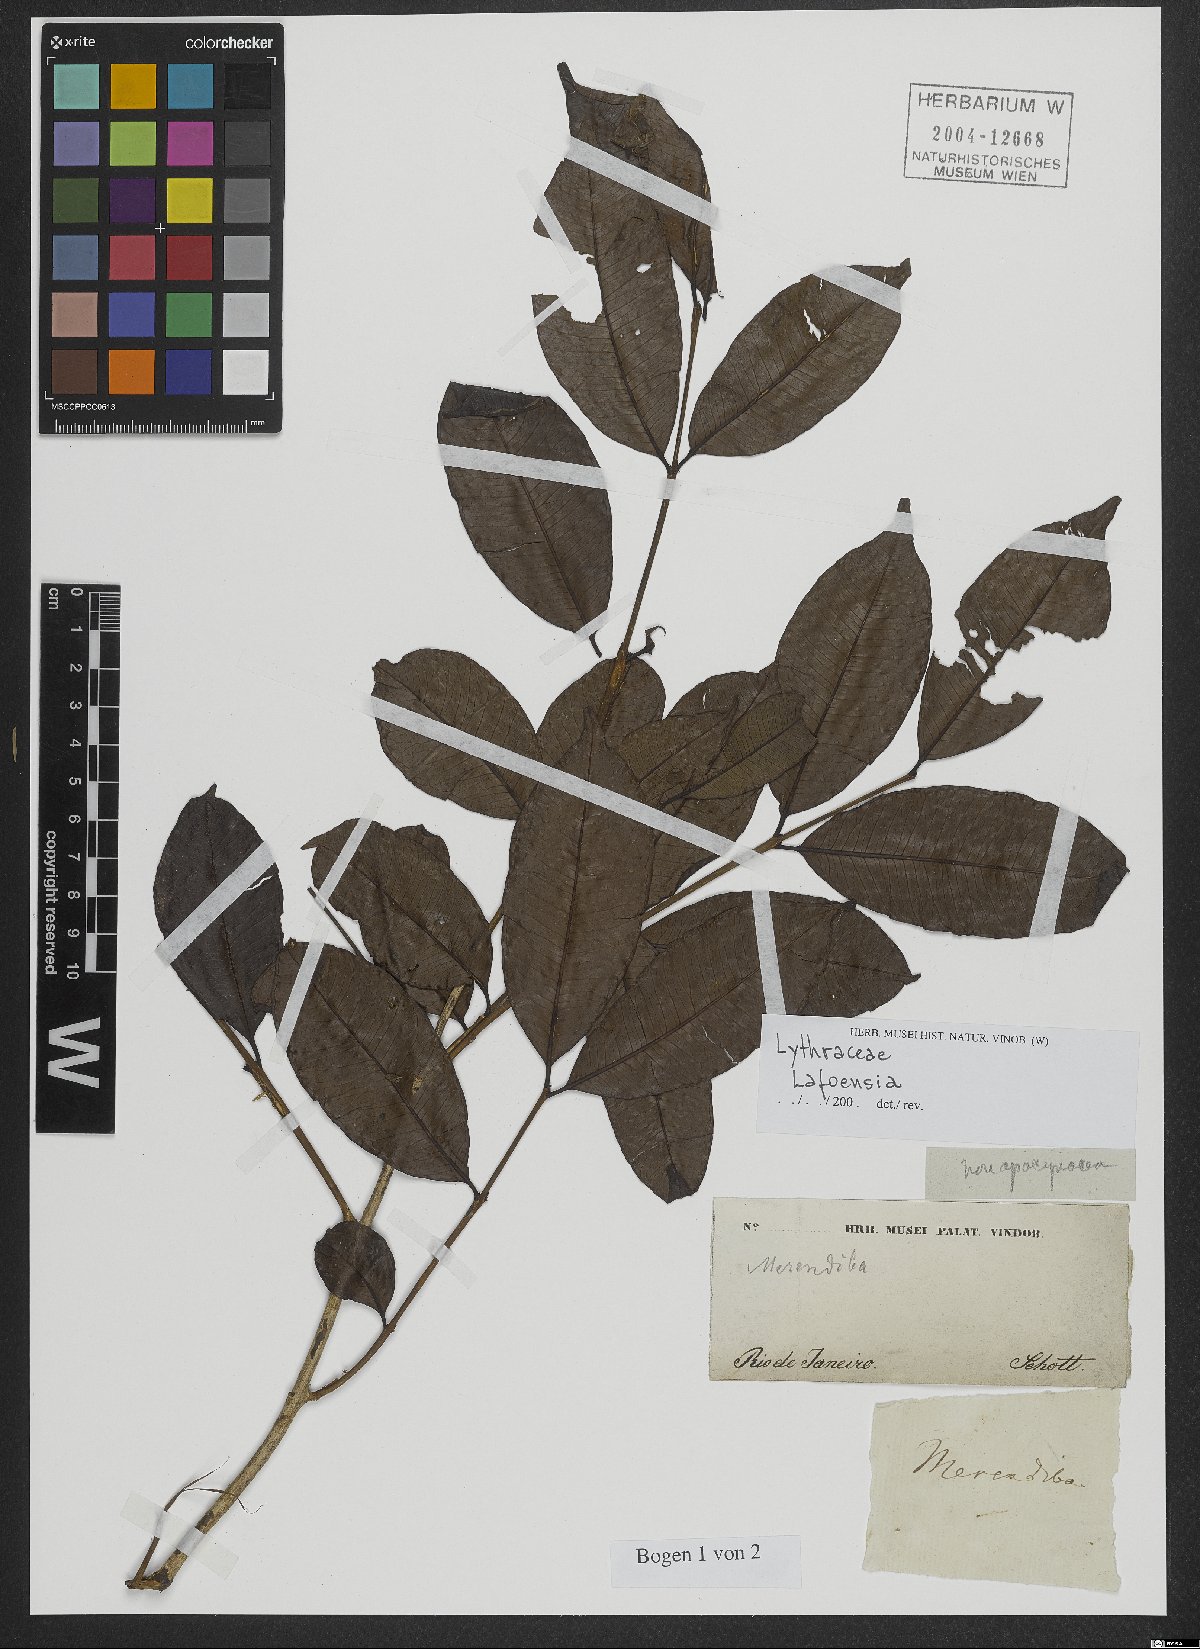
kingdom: Plantae
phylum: Tracheophyta
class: Magnoliopsida
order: Myrtales
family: Lythraceae
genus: Lafoensia
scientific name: Lafoensia vandelliana
